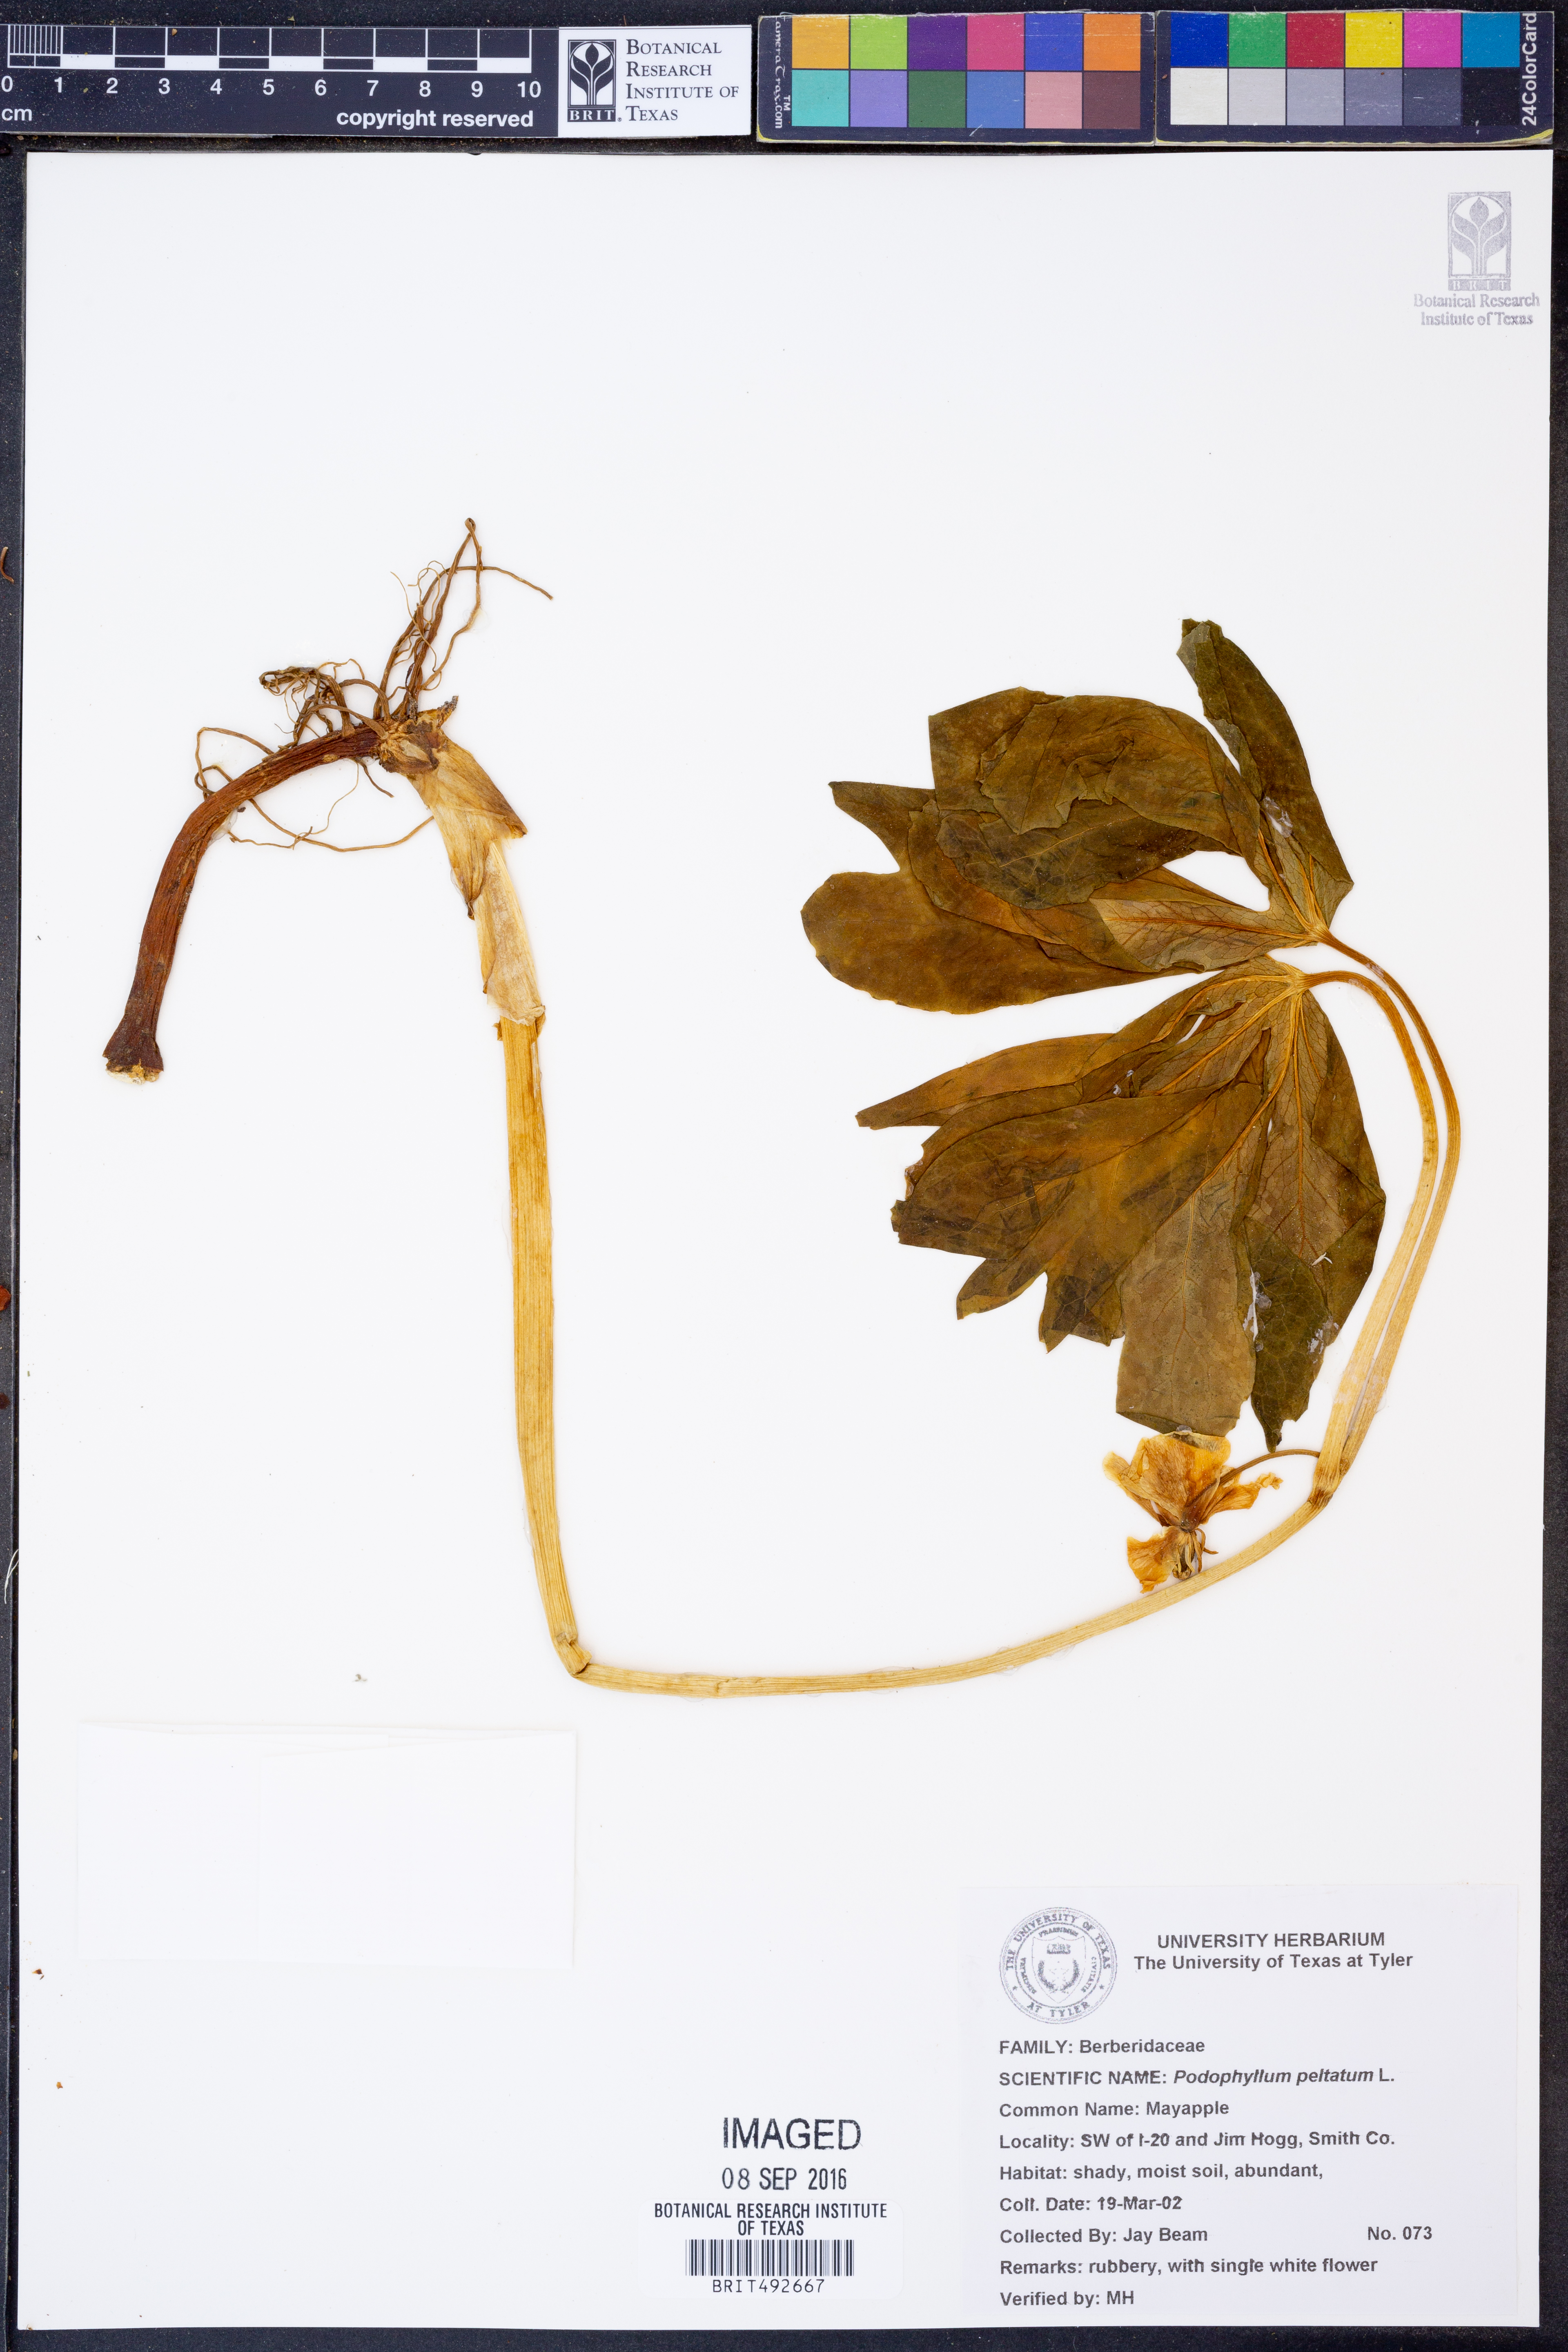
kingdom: Plantae
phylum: Tracheophyta
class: Magnoliopsida
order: Ranunculales
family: Berberidaceae
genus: Podophyllum
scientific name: Podophyllum peltatum
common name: Wild mandrake
